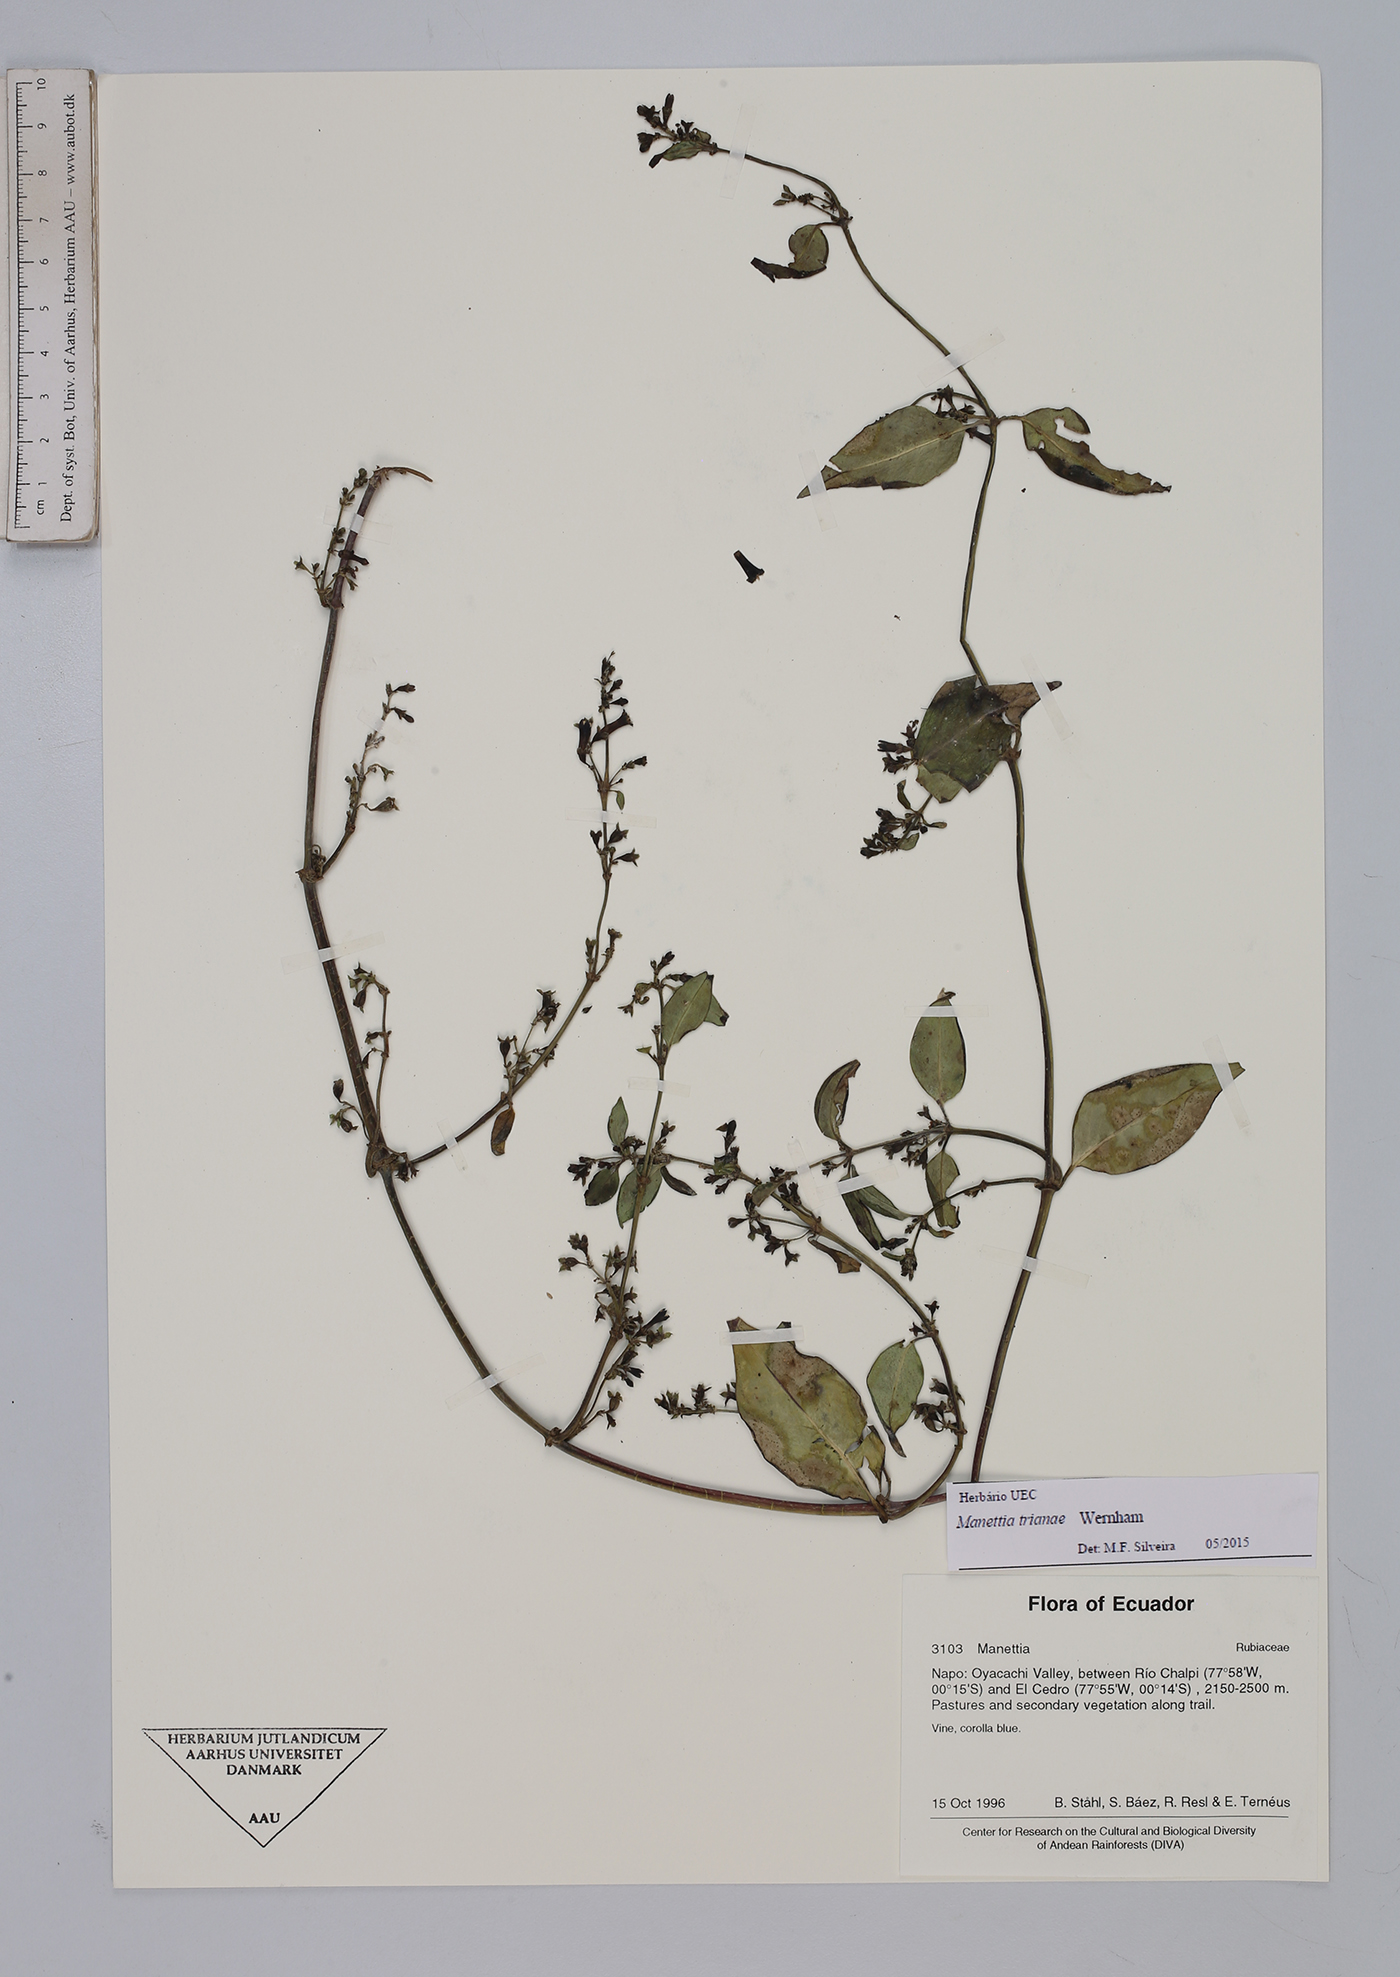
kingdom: Plantae
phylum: Tracheophyta
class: Magnoliopsida
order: Gentianales
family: Rubiaceae
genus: Manettia
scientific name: Manettia trianae
